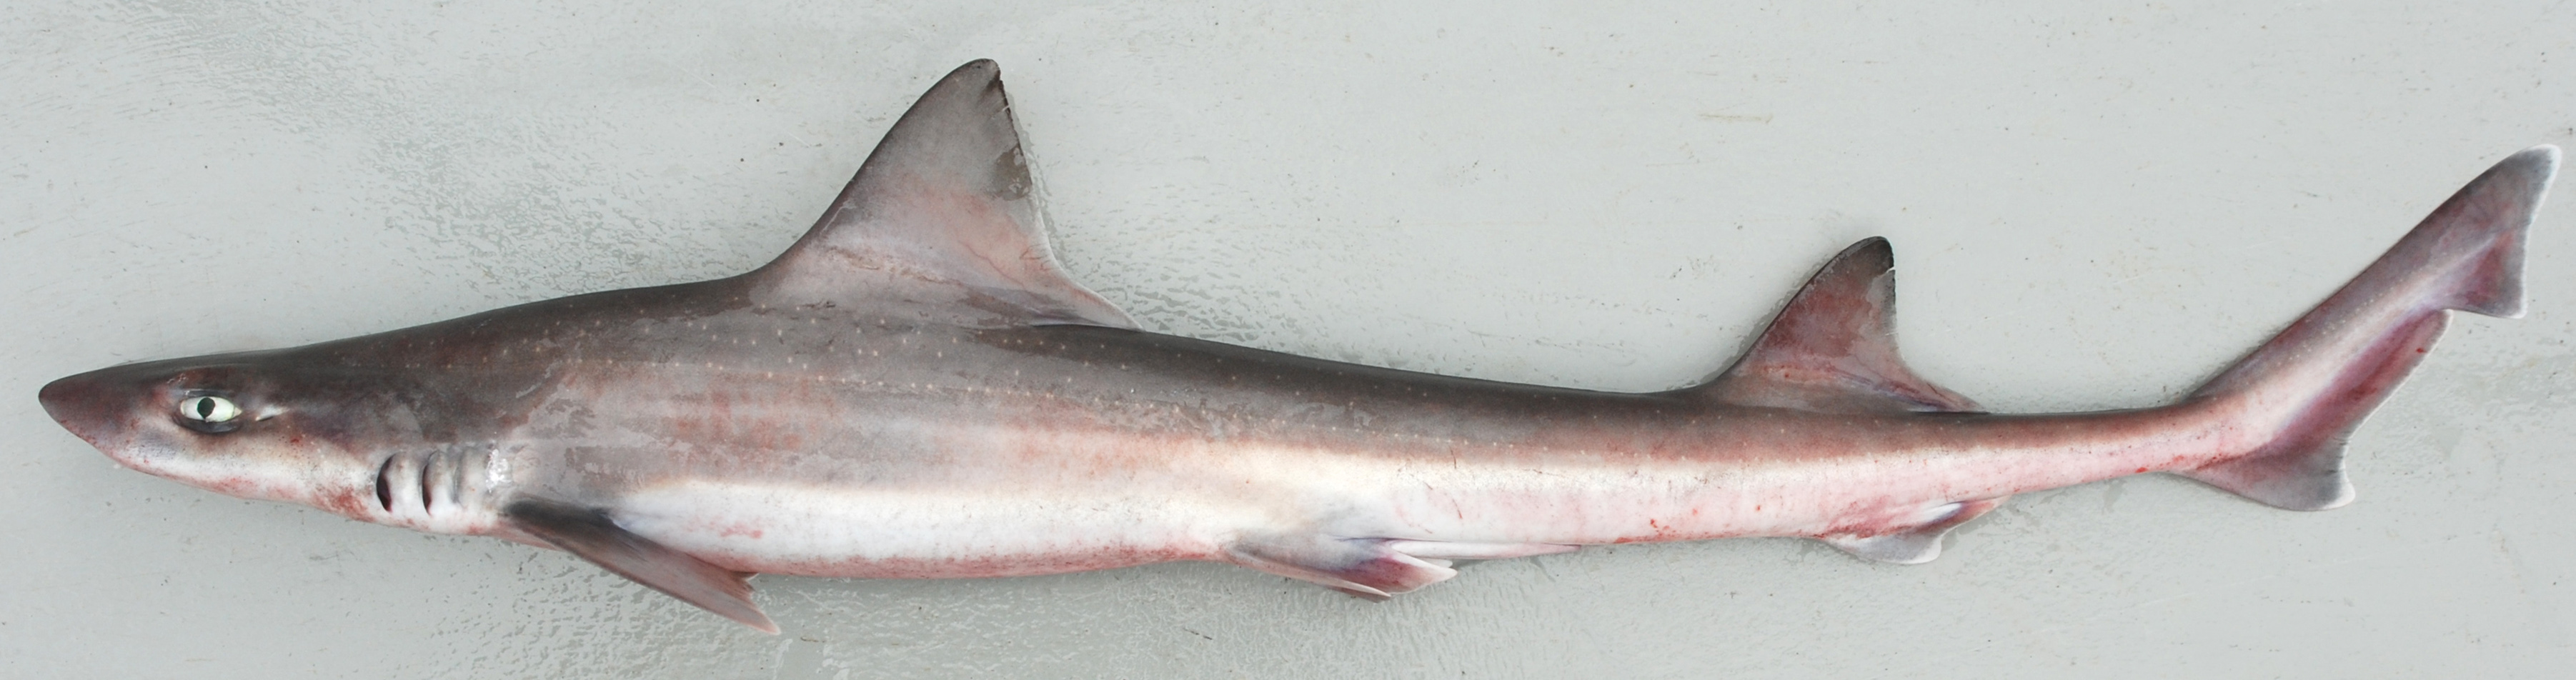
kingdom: Animalia
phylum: Chordata
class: Elasmobranchii
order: Carcharhiniformes
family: Triakidae
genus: Mustelus
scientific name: Mustelus manazo
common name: Starspotted smooth-hound
